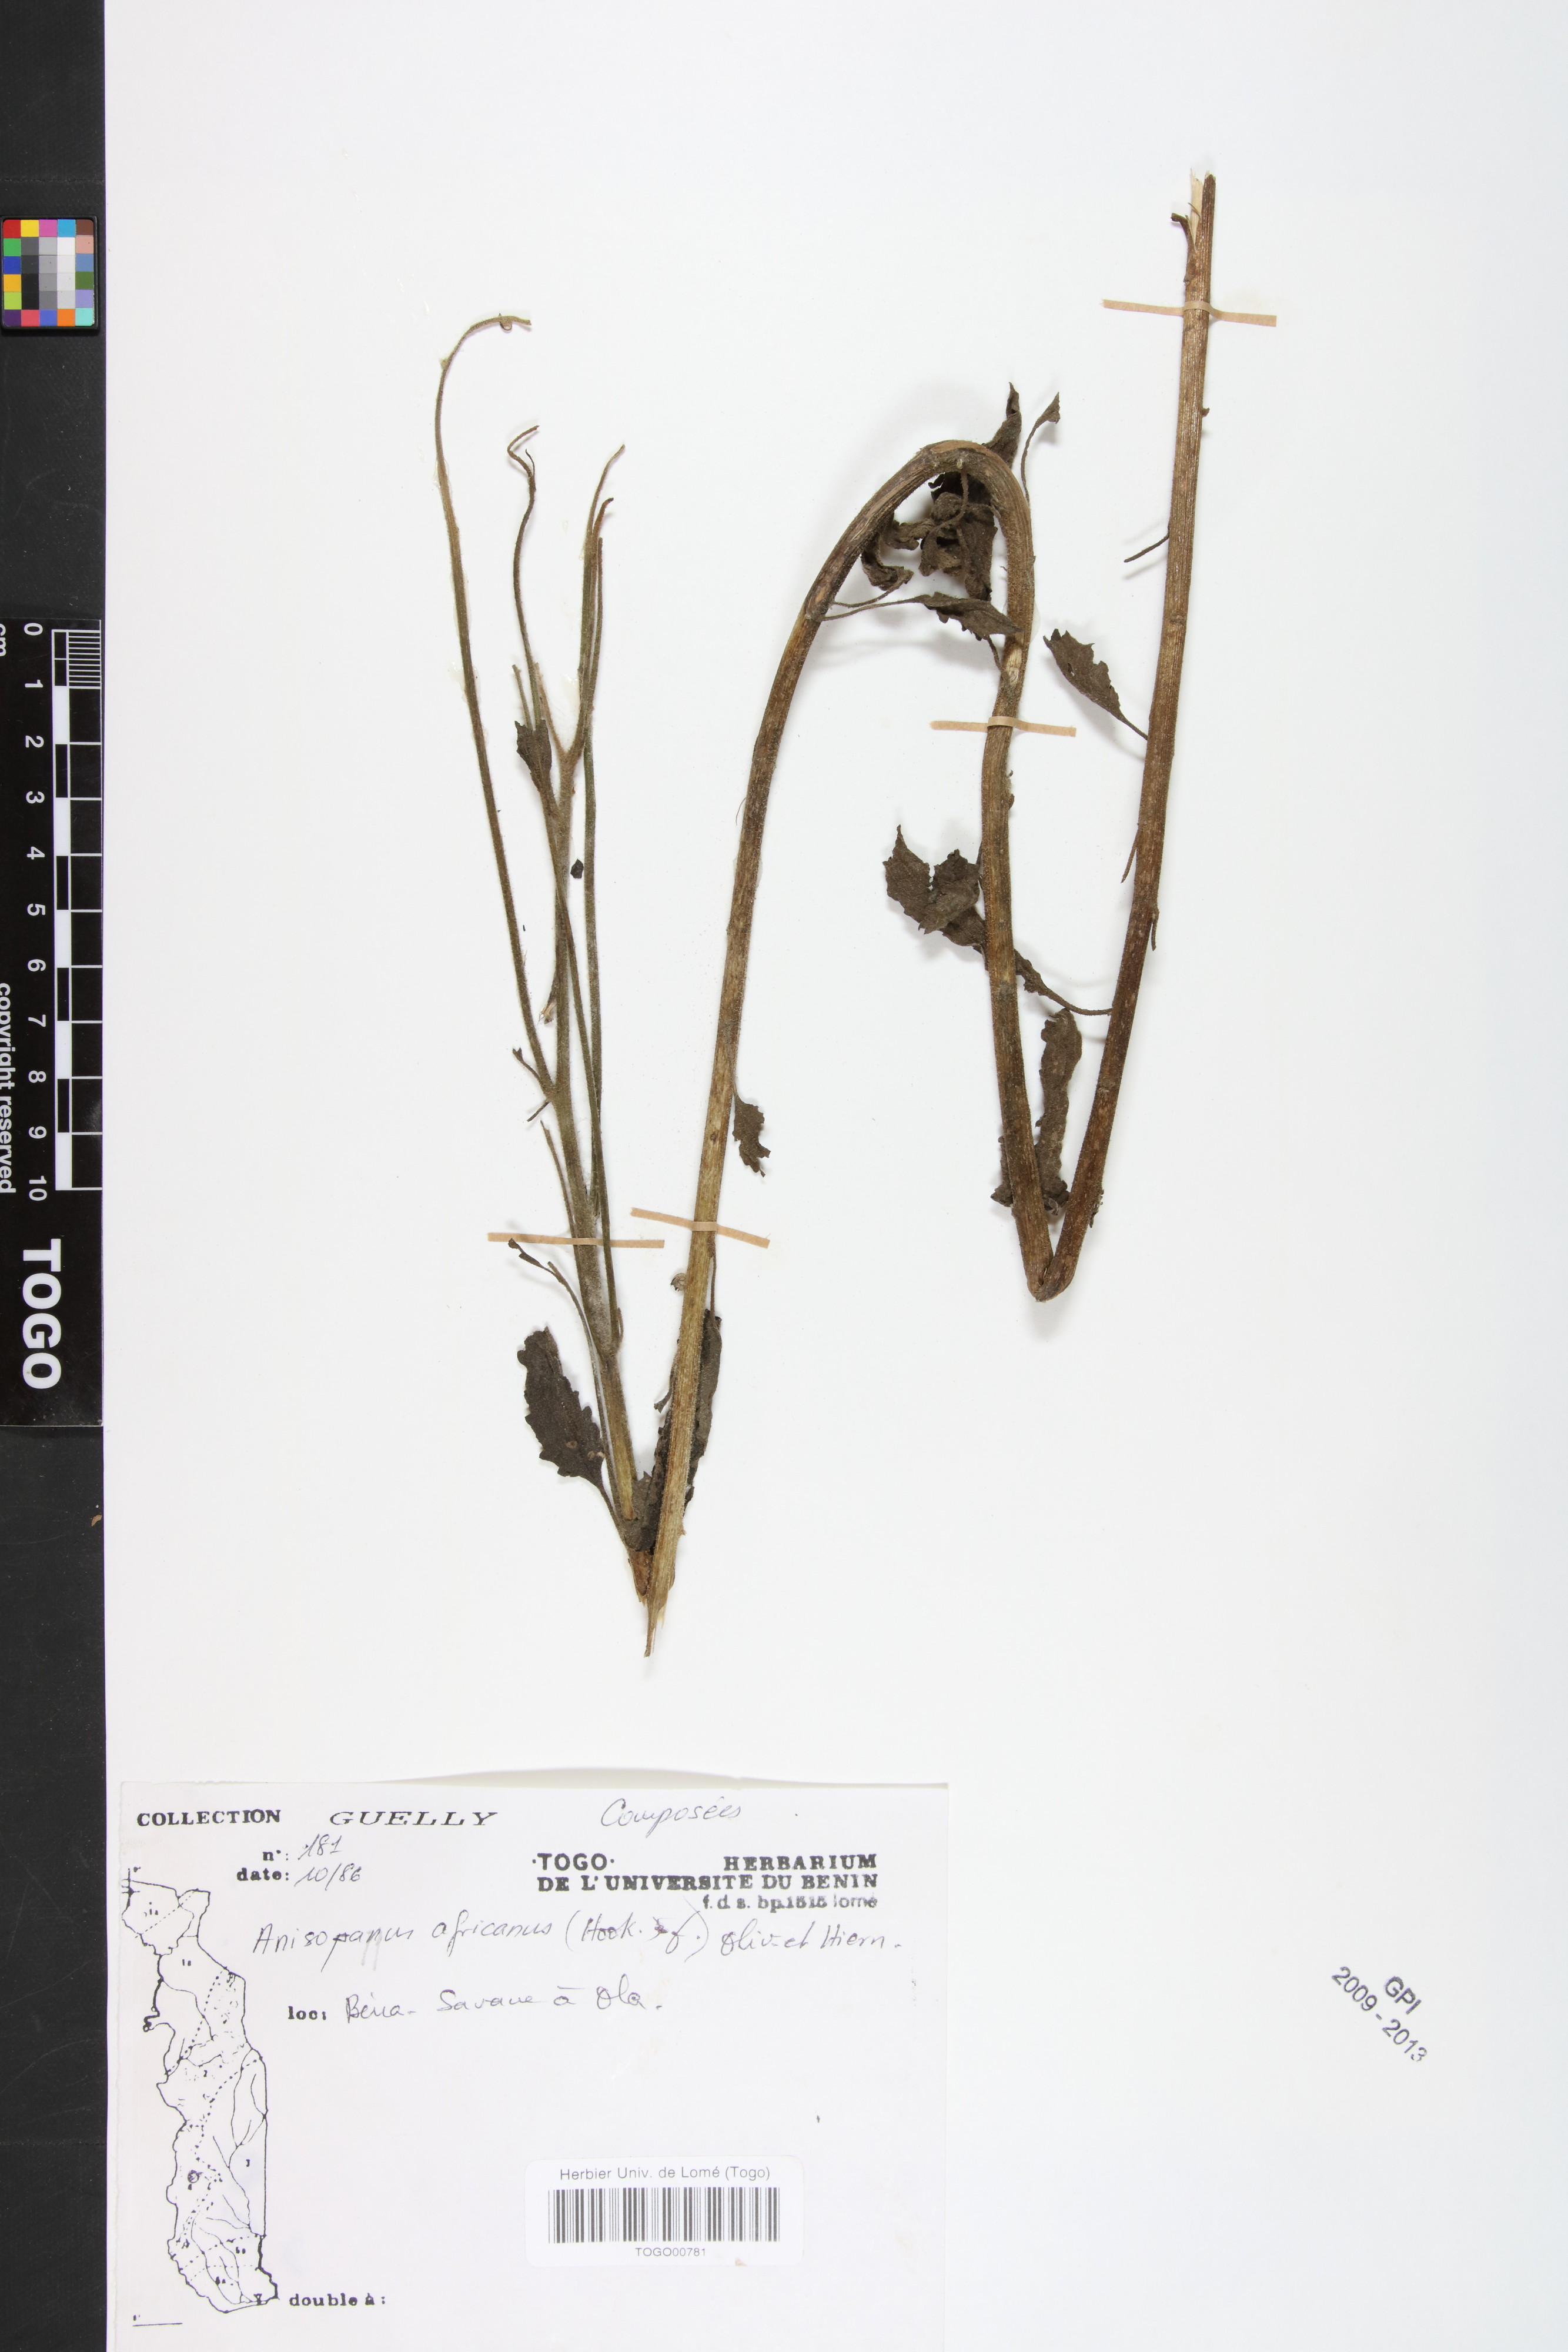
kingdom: Plantae
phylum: Tracheophyta
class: Magnoliopsida
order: Asterales
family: Asteraceae
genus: Anisopappus
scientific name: Anisopappus africanus
